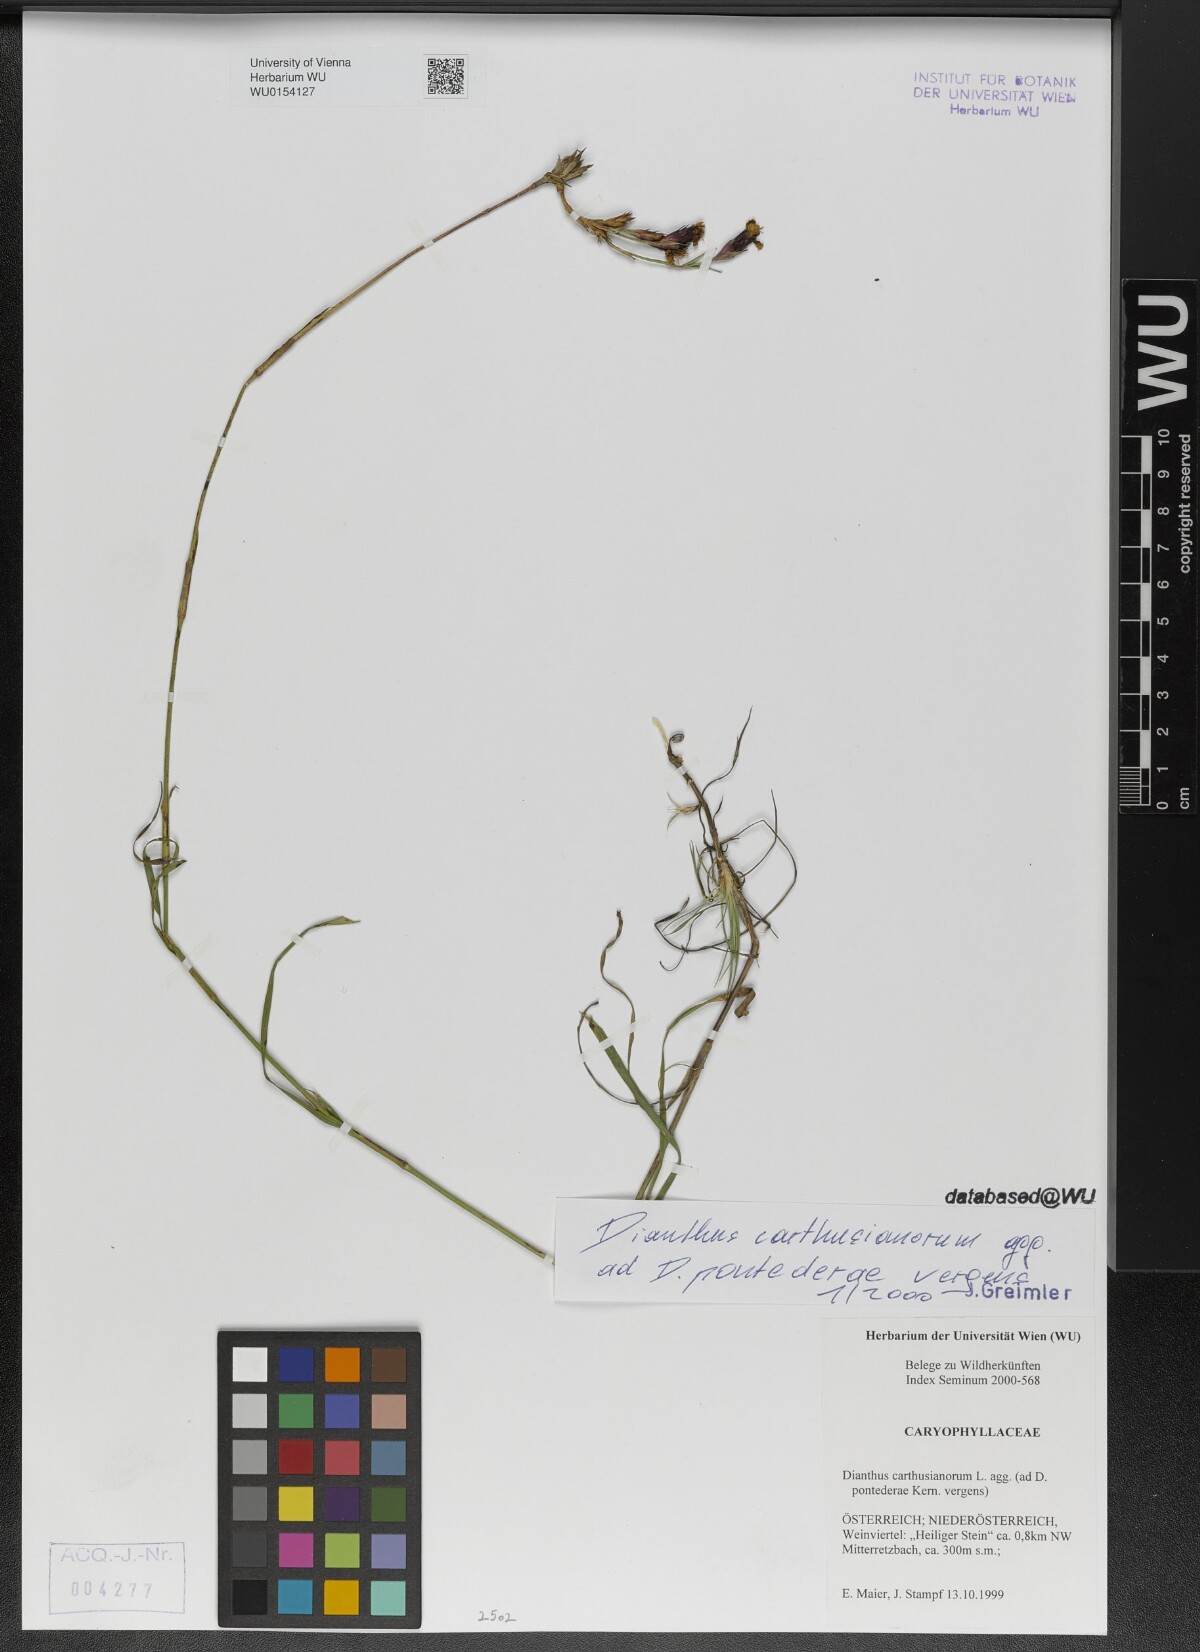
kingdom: Plantae
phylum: Tracheophyta
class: Magnoliopsida
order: Caryophyllales
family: Caryophyllaceae
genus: Dianthus
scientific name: Dianthus carthusianorum
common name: Carthusian pink
